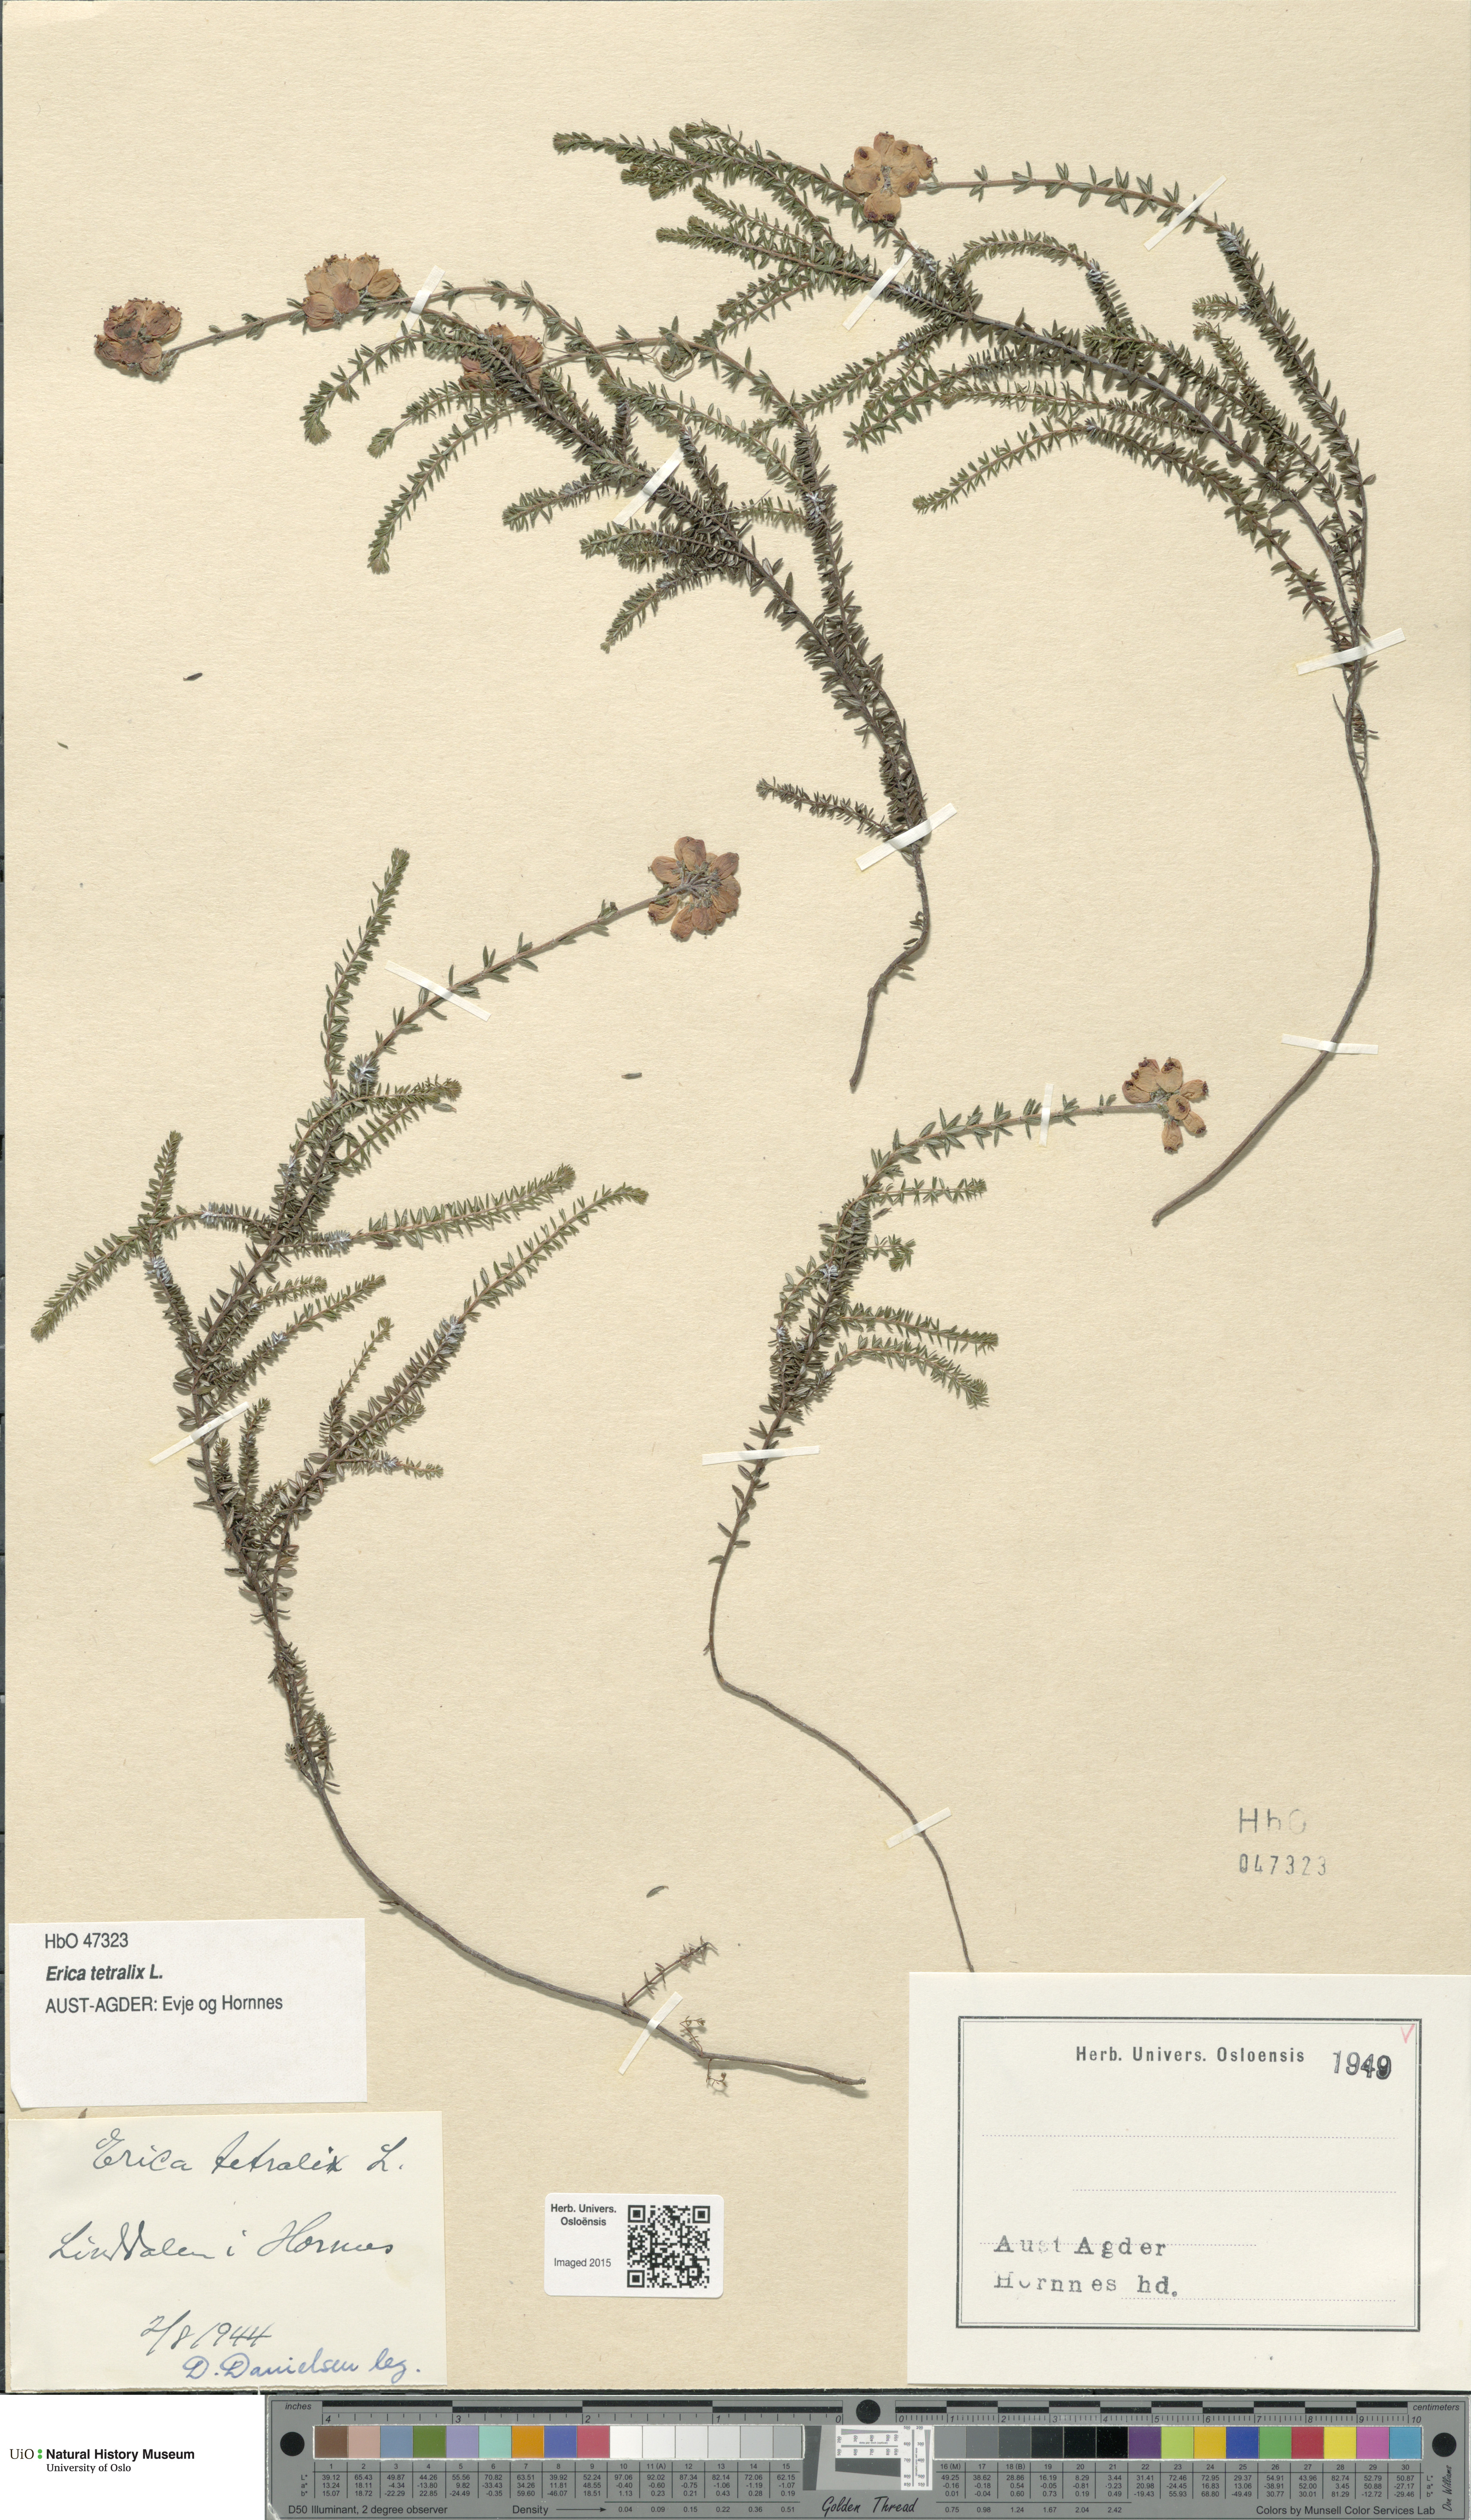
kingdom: Plantae
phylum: Tracheophyta
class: Magnoliopsida
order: Ericales
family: Ericaceae
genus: Erica
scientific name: Erica tetralix
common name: Cross-leaved heath
